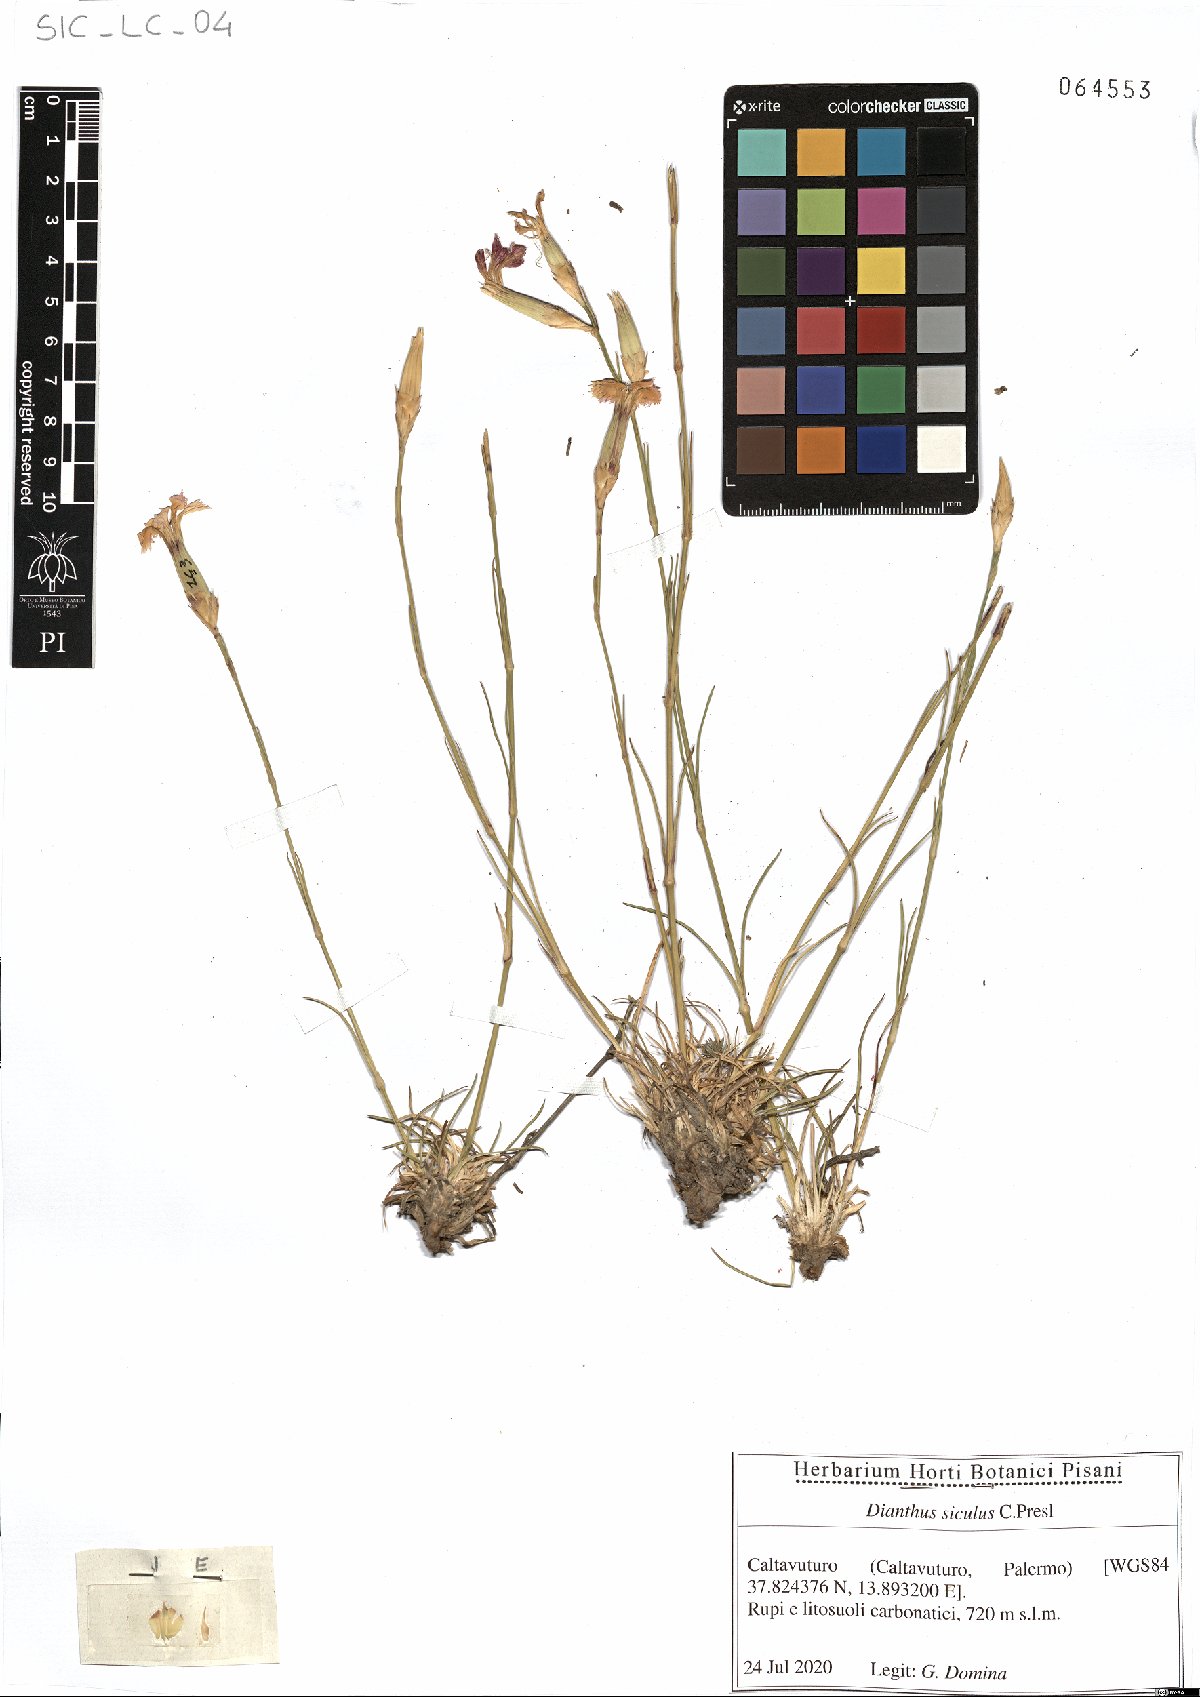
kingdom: Plantae
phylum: Tracheophyta
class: Magnoliopsida
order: Caryophyllales
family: Caryophyllaceae
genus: Dianthus
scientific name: Dianthus siculus
